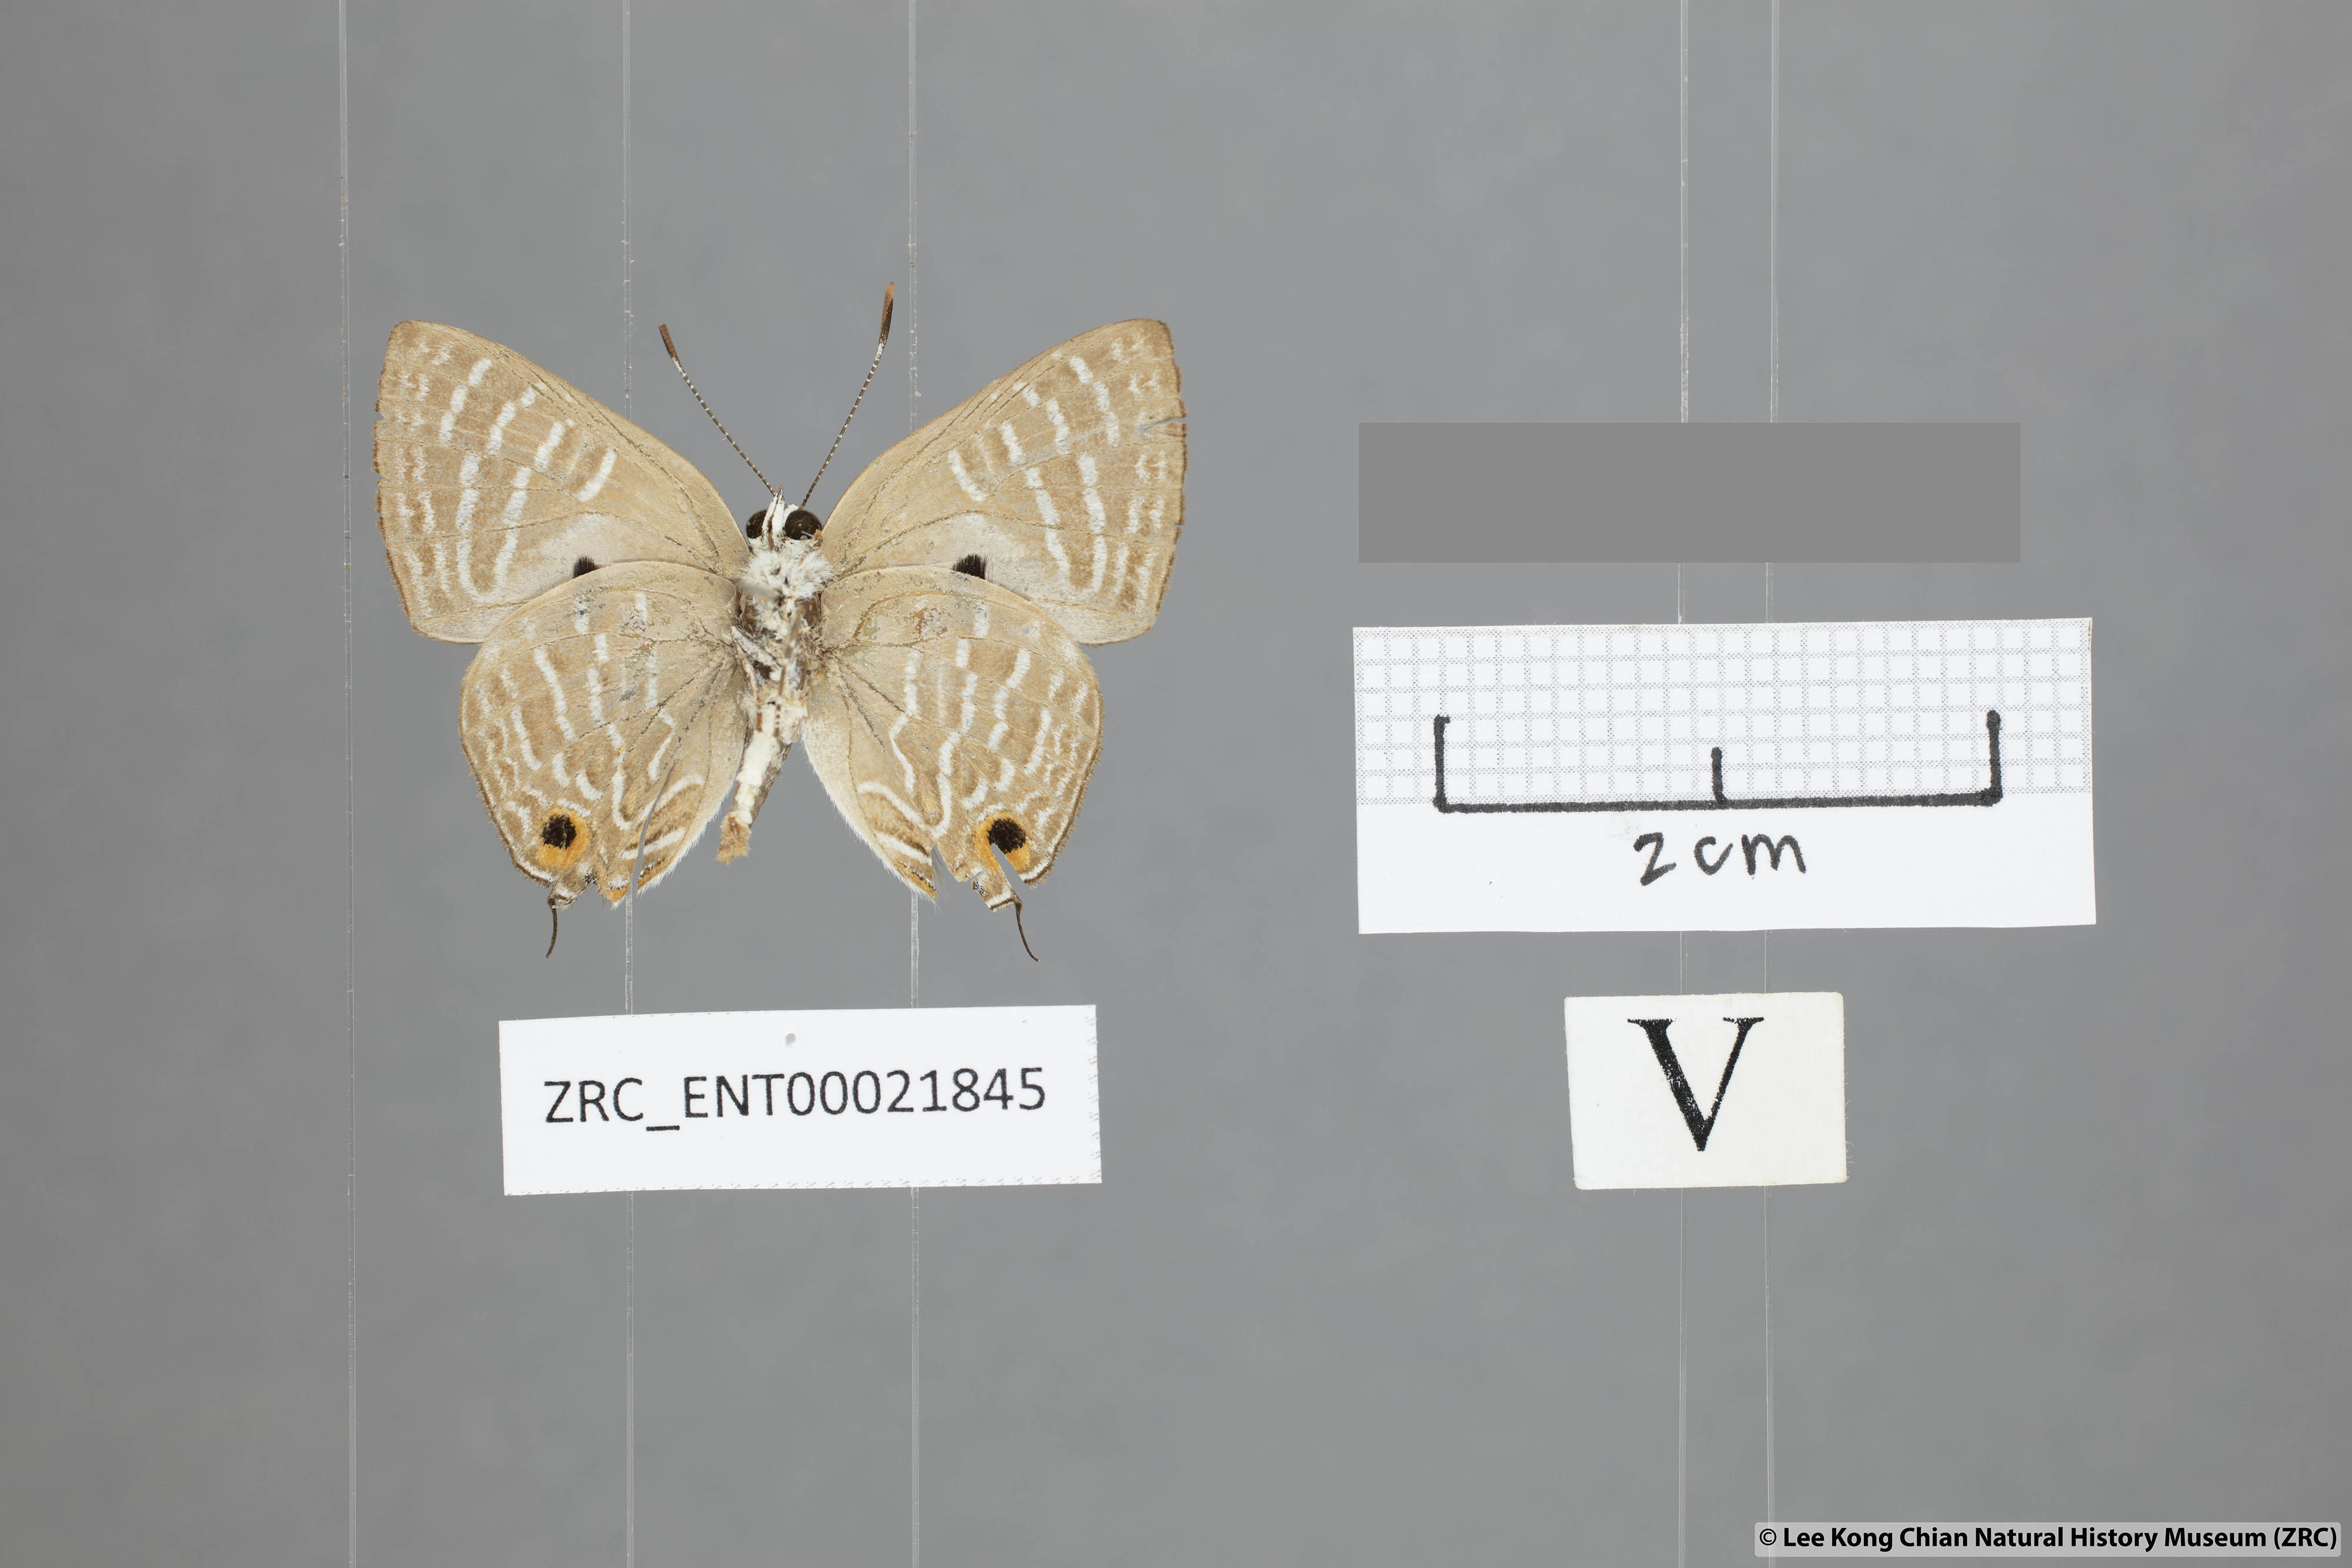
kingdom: Animalia
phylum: Arthropoda
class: Insecta
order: Lepidoptera
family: Lycaenidae
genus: Deudorix
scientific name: Deudorix kessuma
